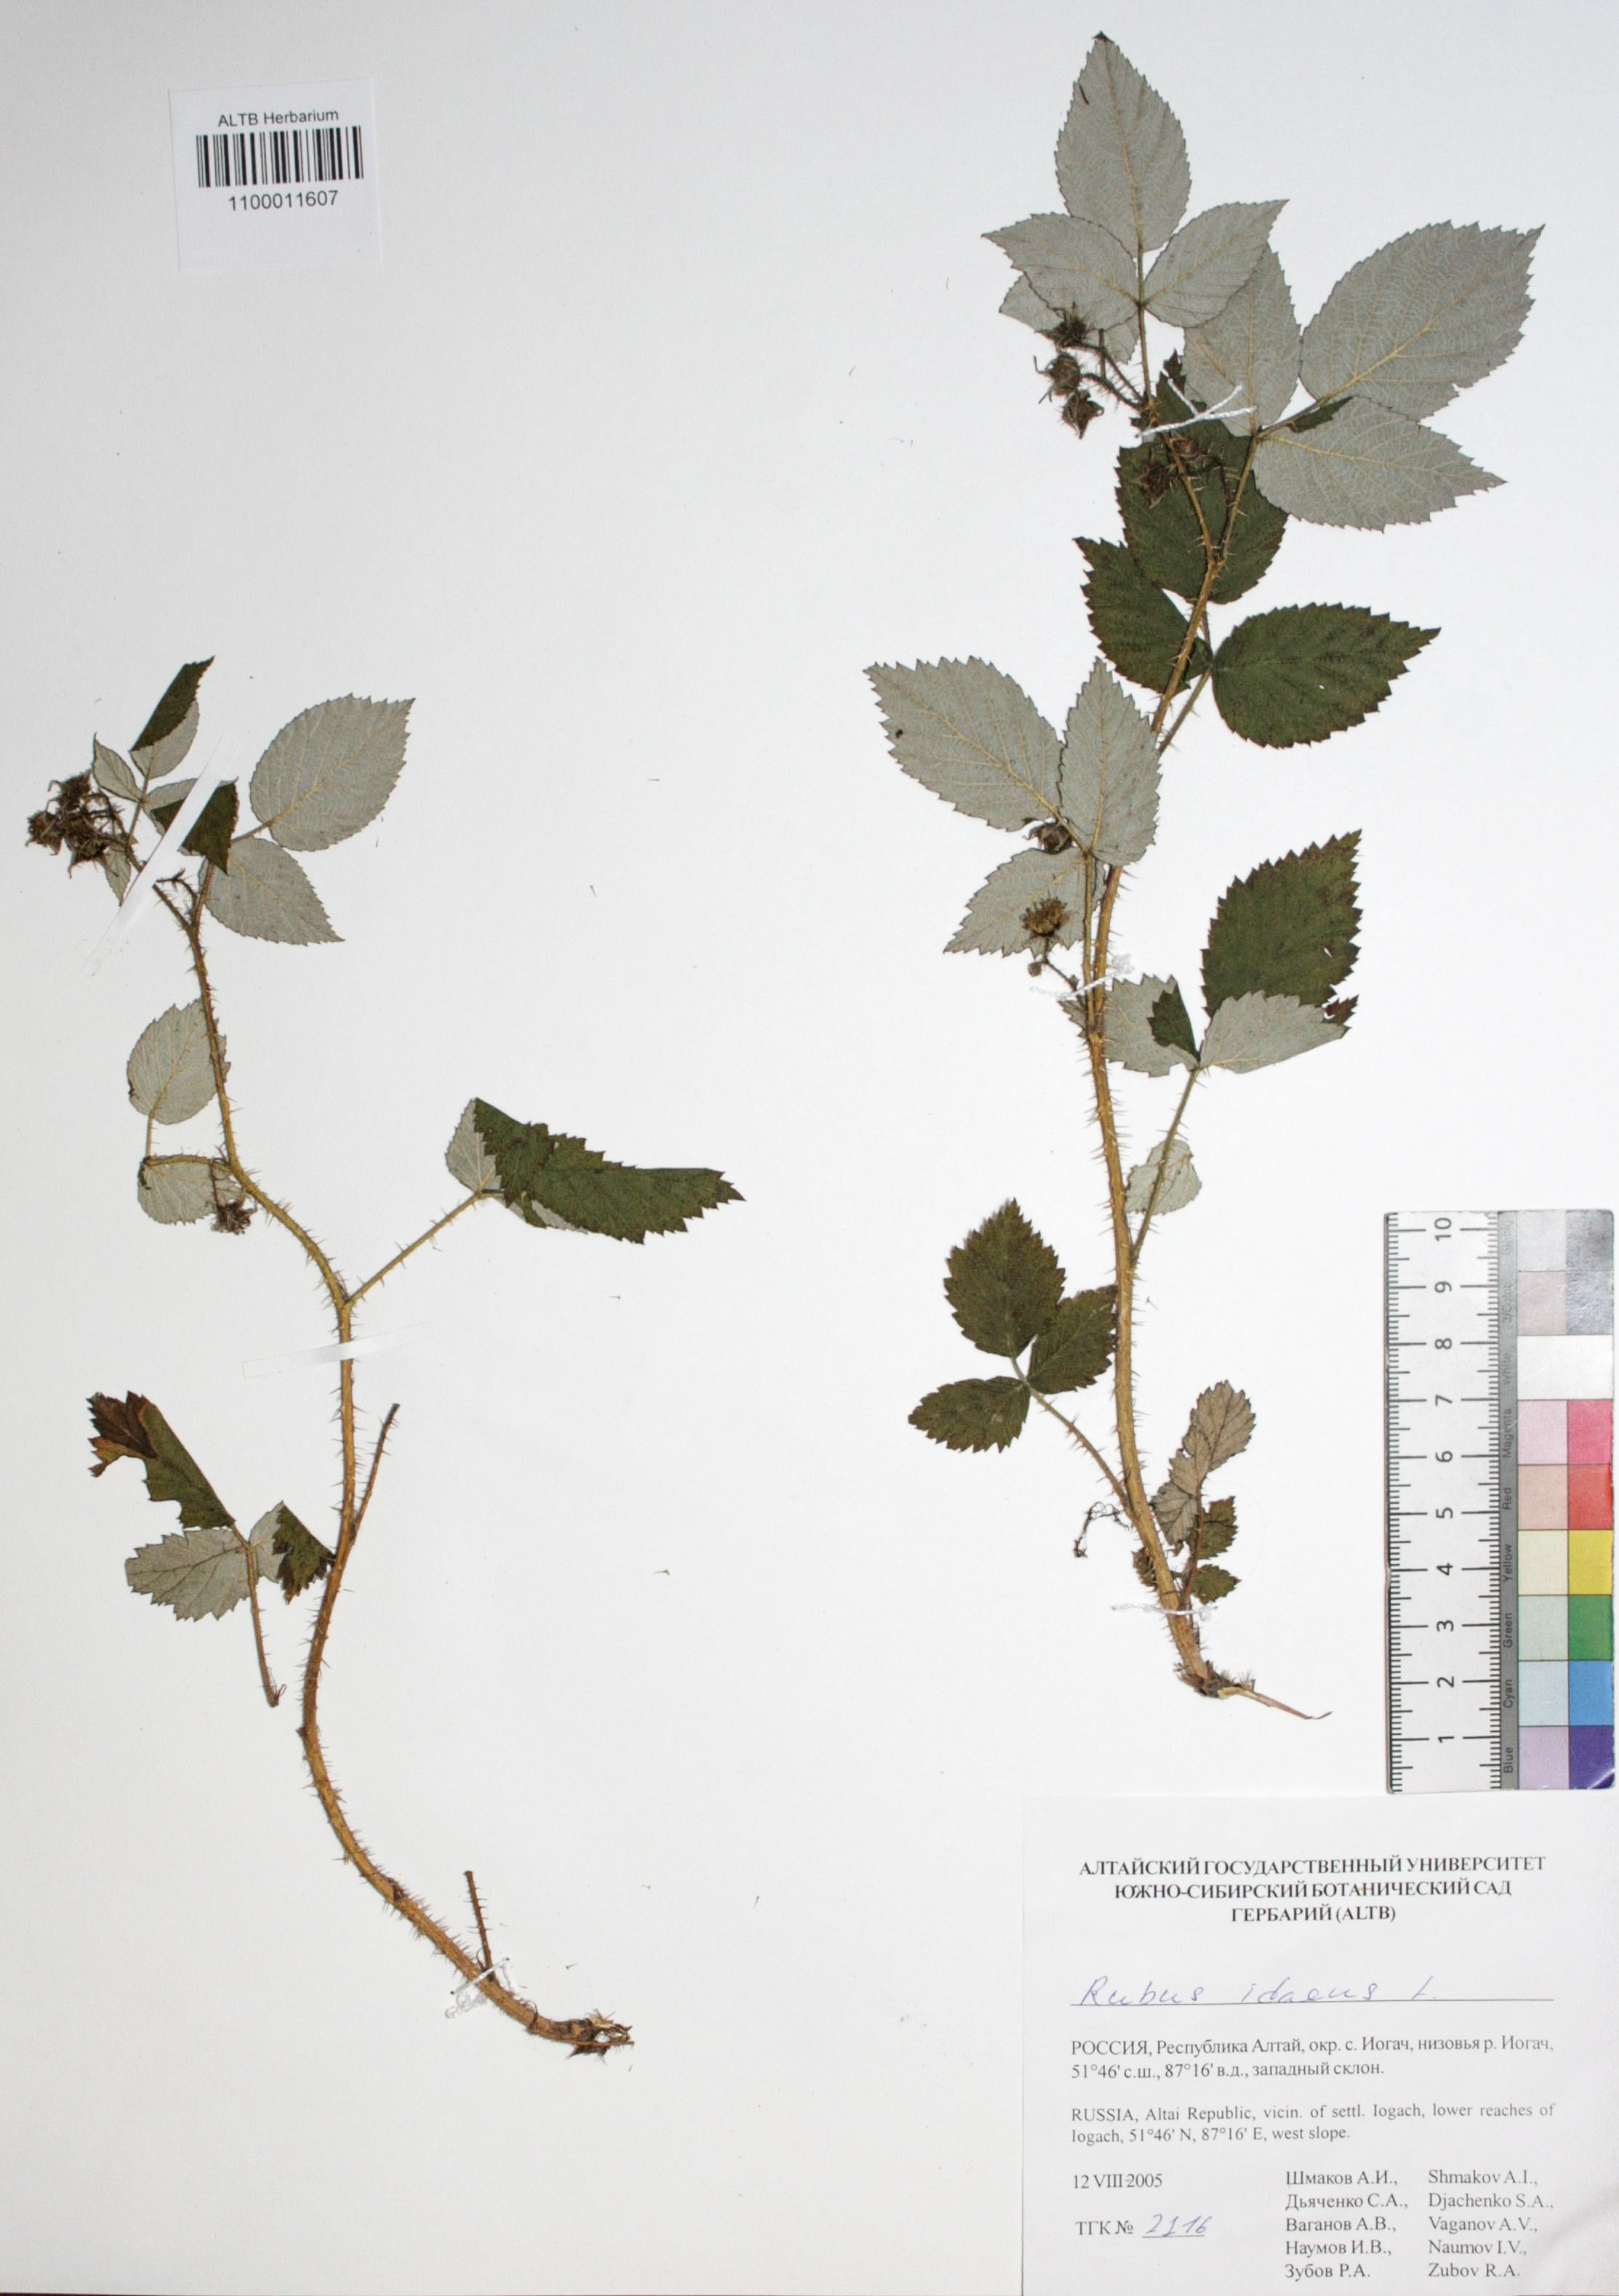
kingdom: Plantae
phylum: Tracheophyta
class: Magnoliopsida
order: Rosales
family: Rosaceae
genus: Rubus
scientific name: Rubus idaeus
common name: Raspberry
